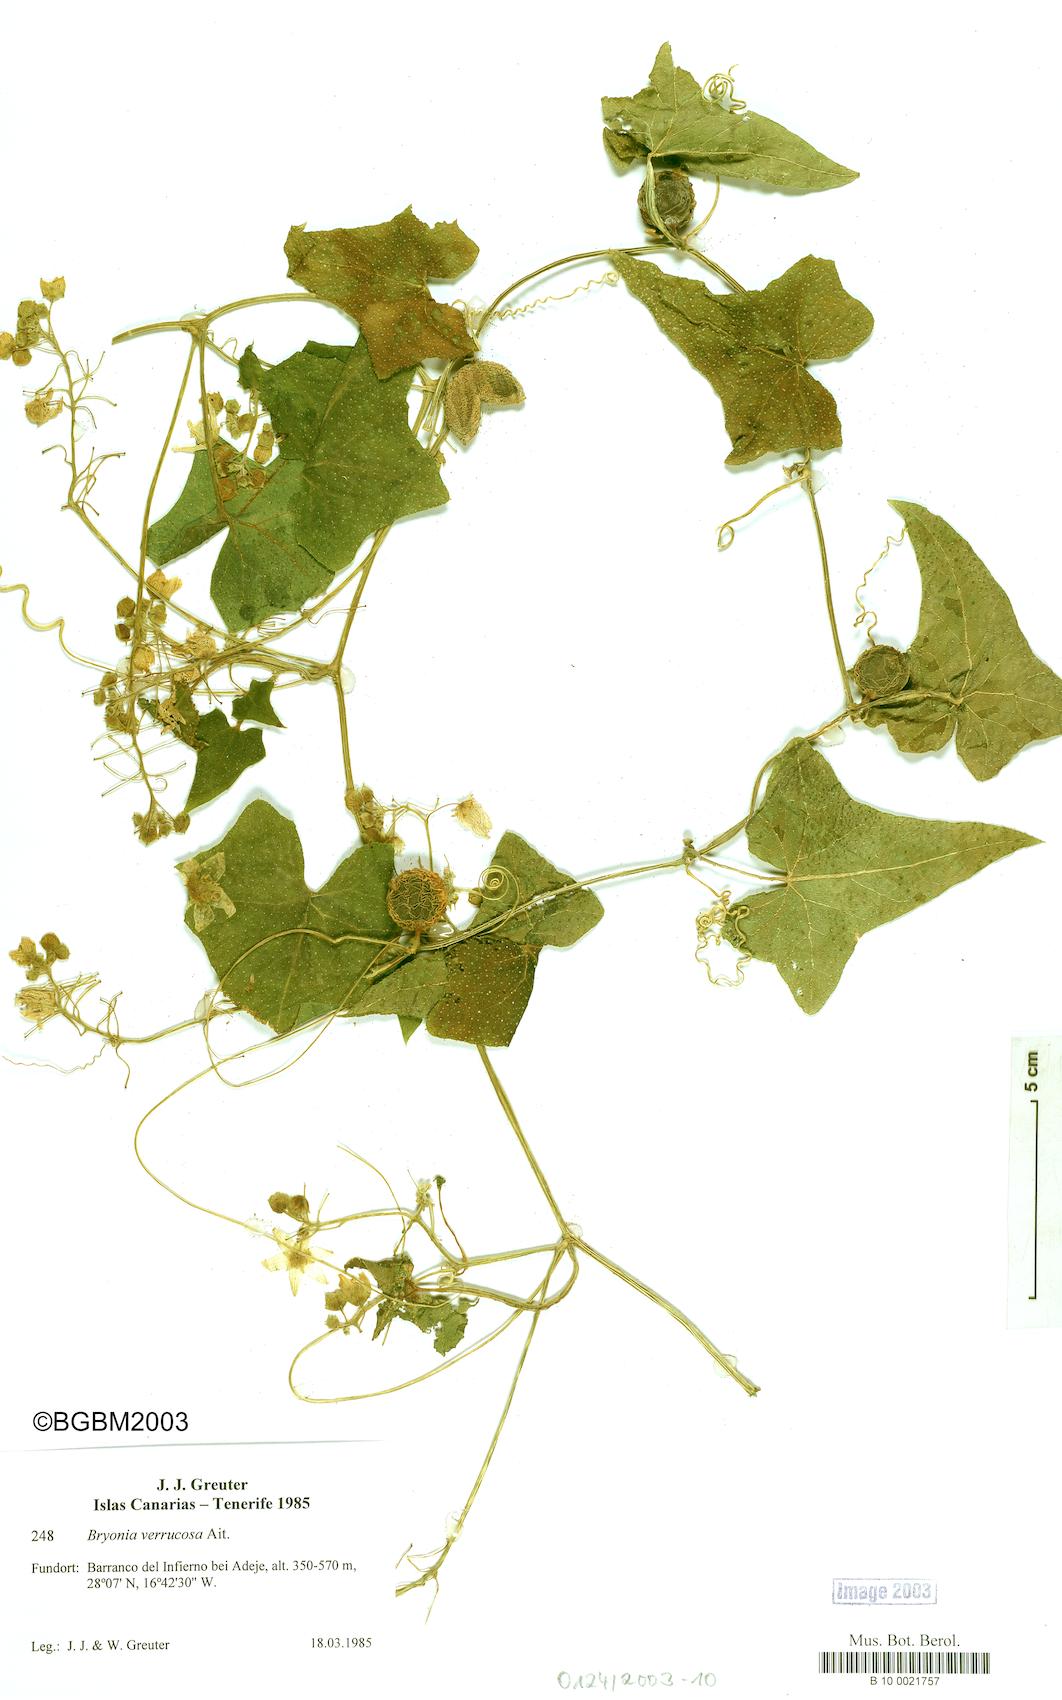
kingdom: Plantae
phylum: Tracheophyta
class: Magnoliopsida
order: Cucurbitales
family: Cucurbitaceae
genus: Bryonia
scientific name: Bryonia verrucosa
